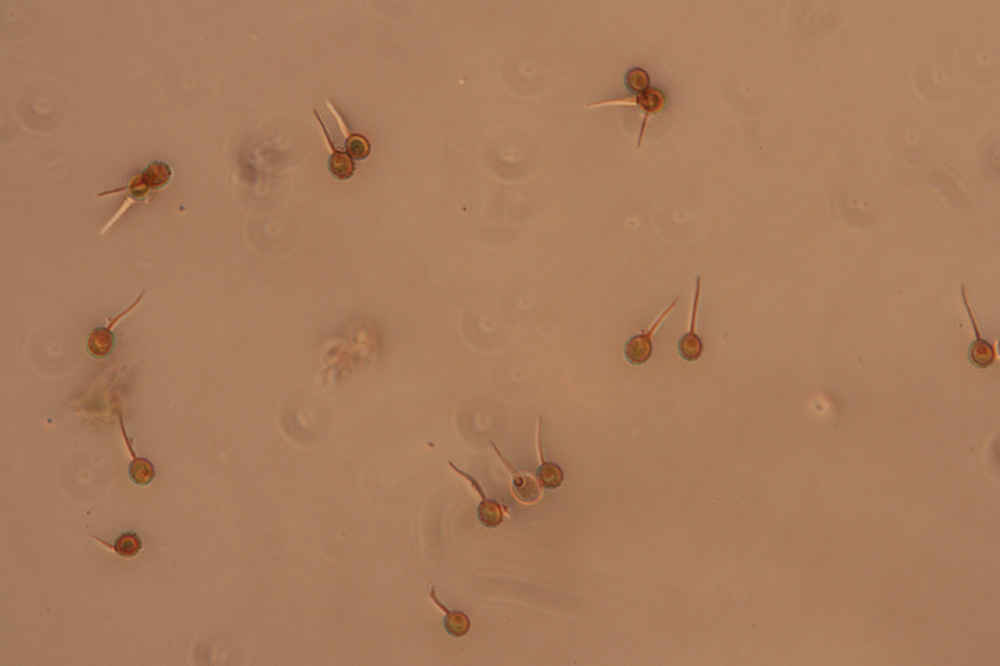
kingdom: Fungi
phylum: Basidiomycota
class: Agaricomycetes
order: Agaricales
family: Lycoperdaceae
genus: Bovista
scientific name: Bovista plumbea
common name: blygrå bovist
